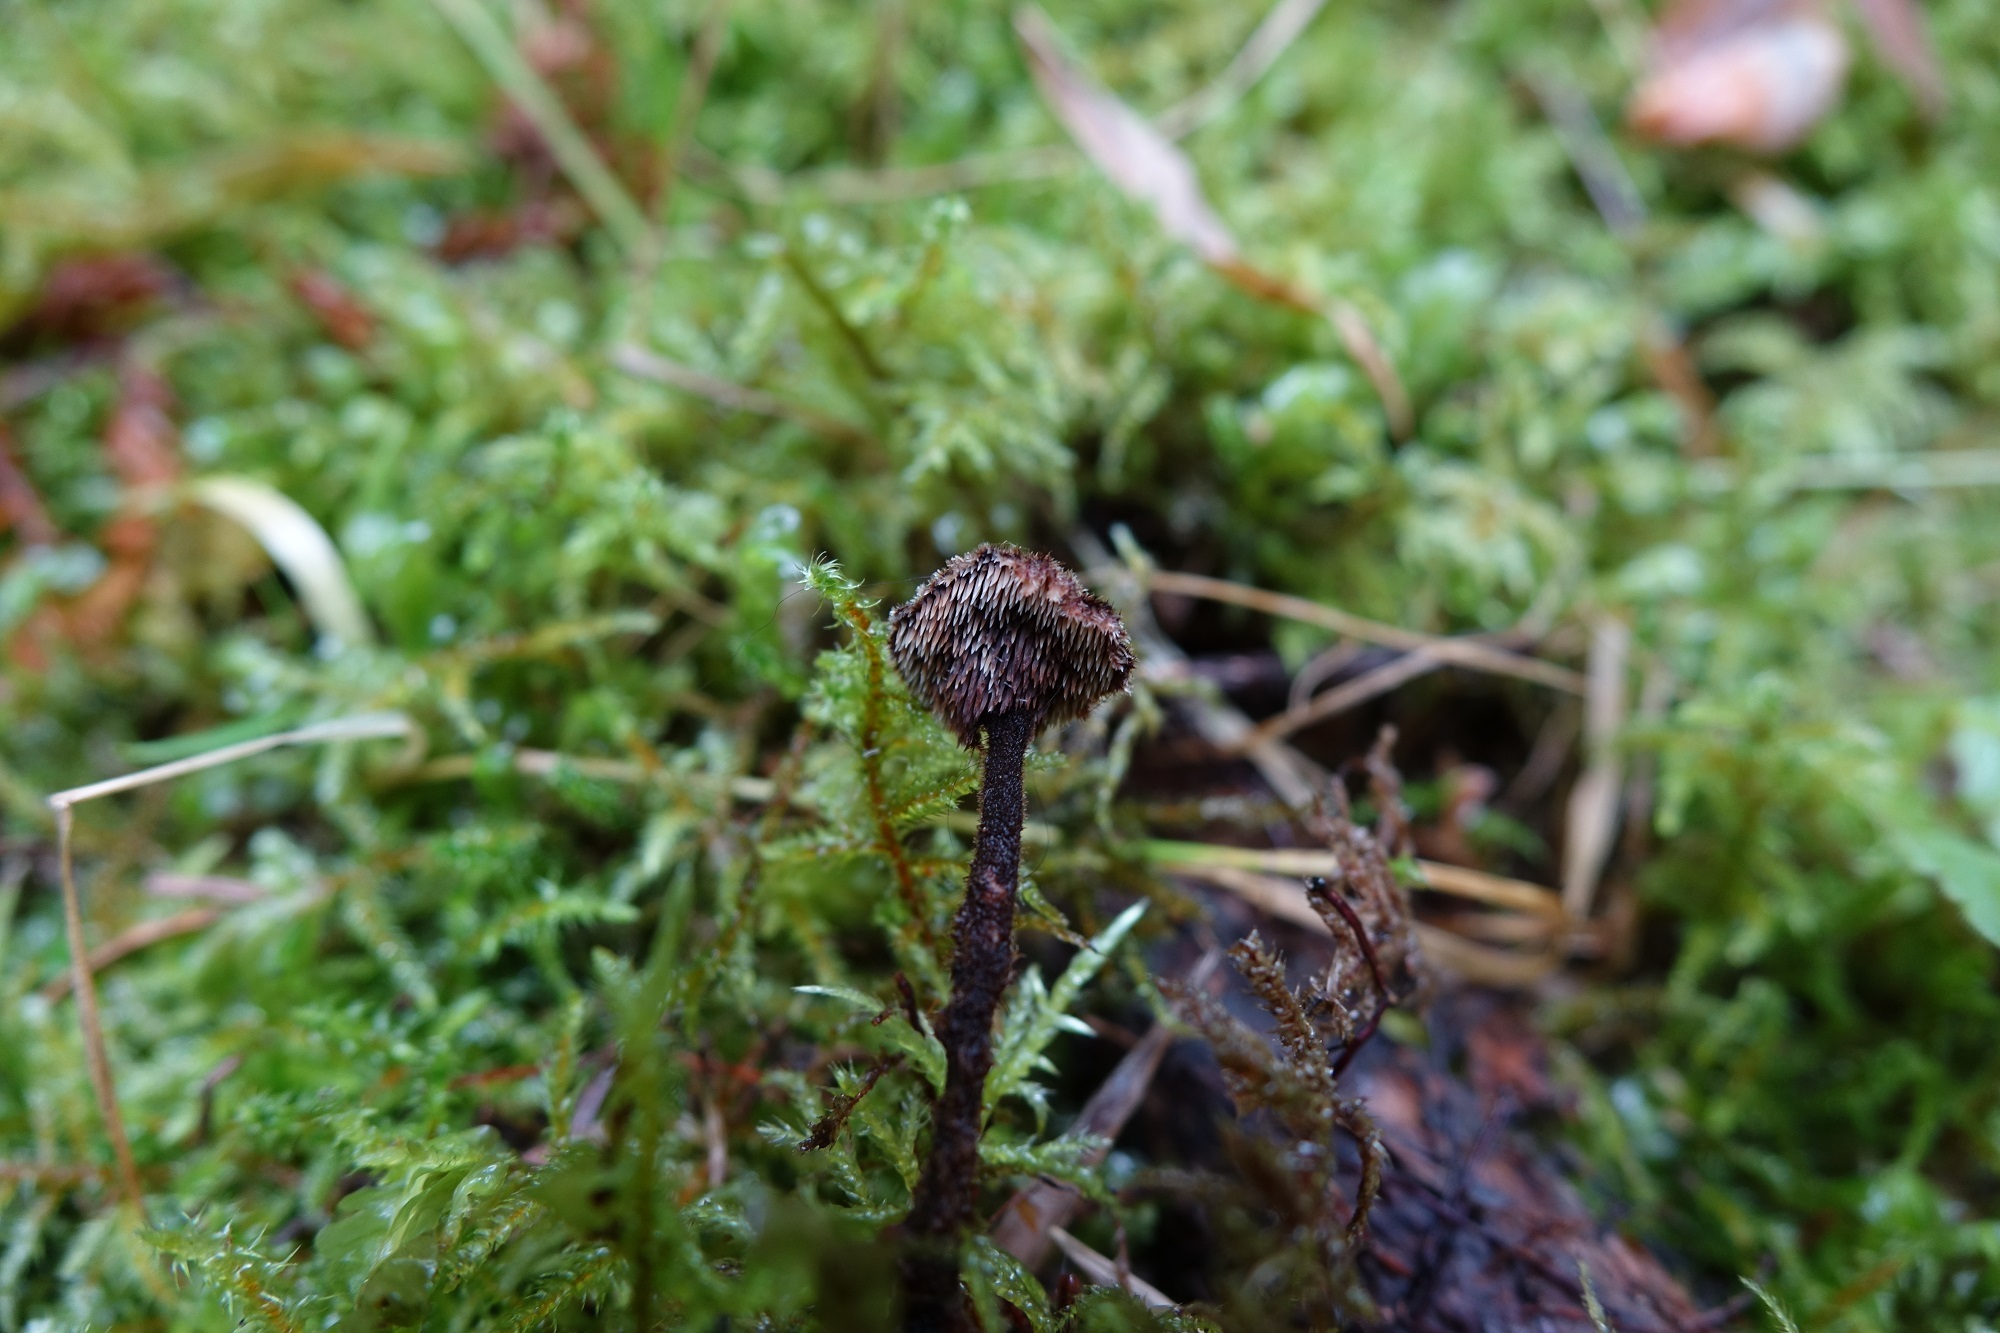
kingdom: Fungi
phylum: Basidiomycota
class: Agaricomycetes
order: Russulales
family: Auriscalpiaceae
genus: Auriscalpium
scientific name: Auriscalpium vulgare
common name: Earpick fungus
